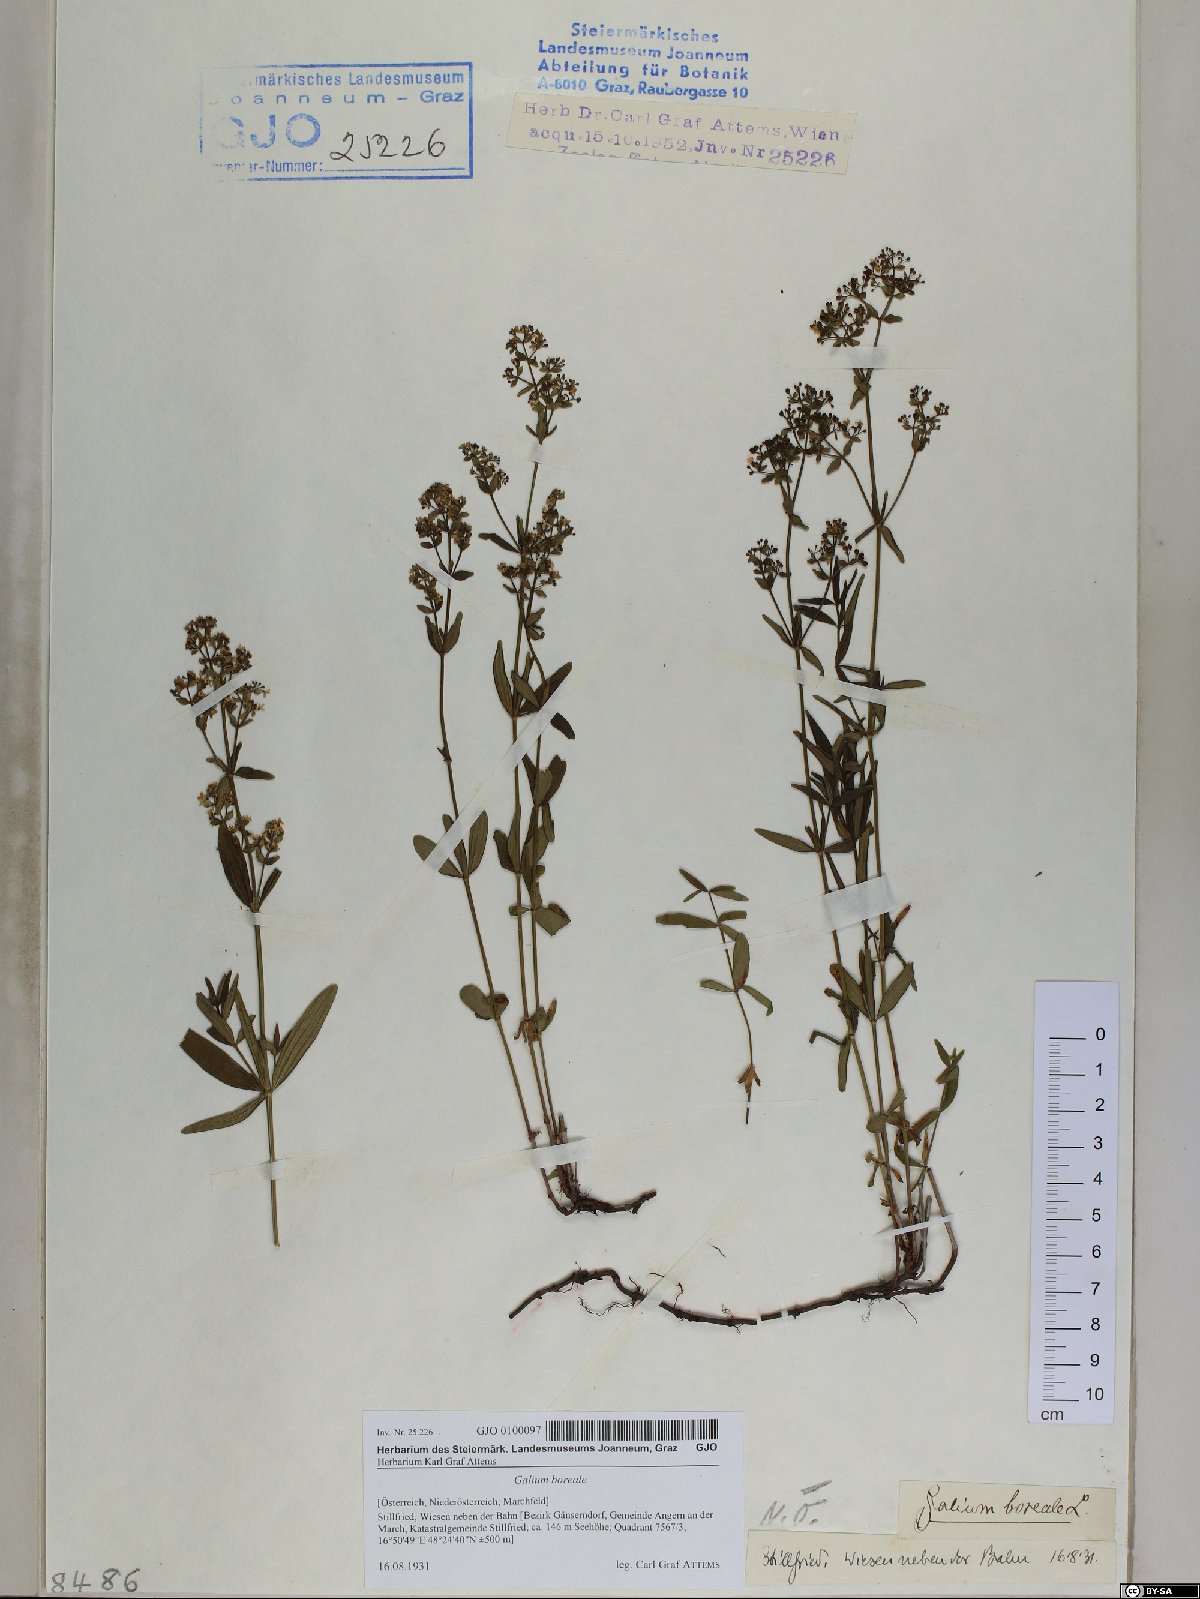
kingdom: Plantae
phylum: Tracheophyta
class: Magnoliopsida
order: Gentianales
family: Rubiaceae
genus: Galium
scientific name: Galium boreale
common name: Northern bedstraw
